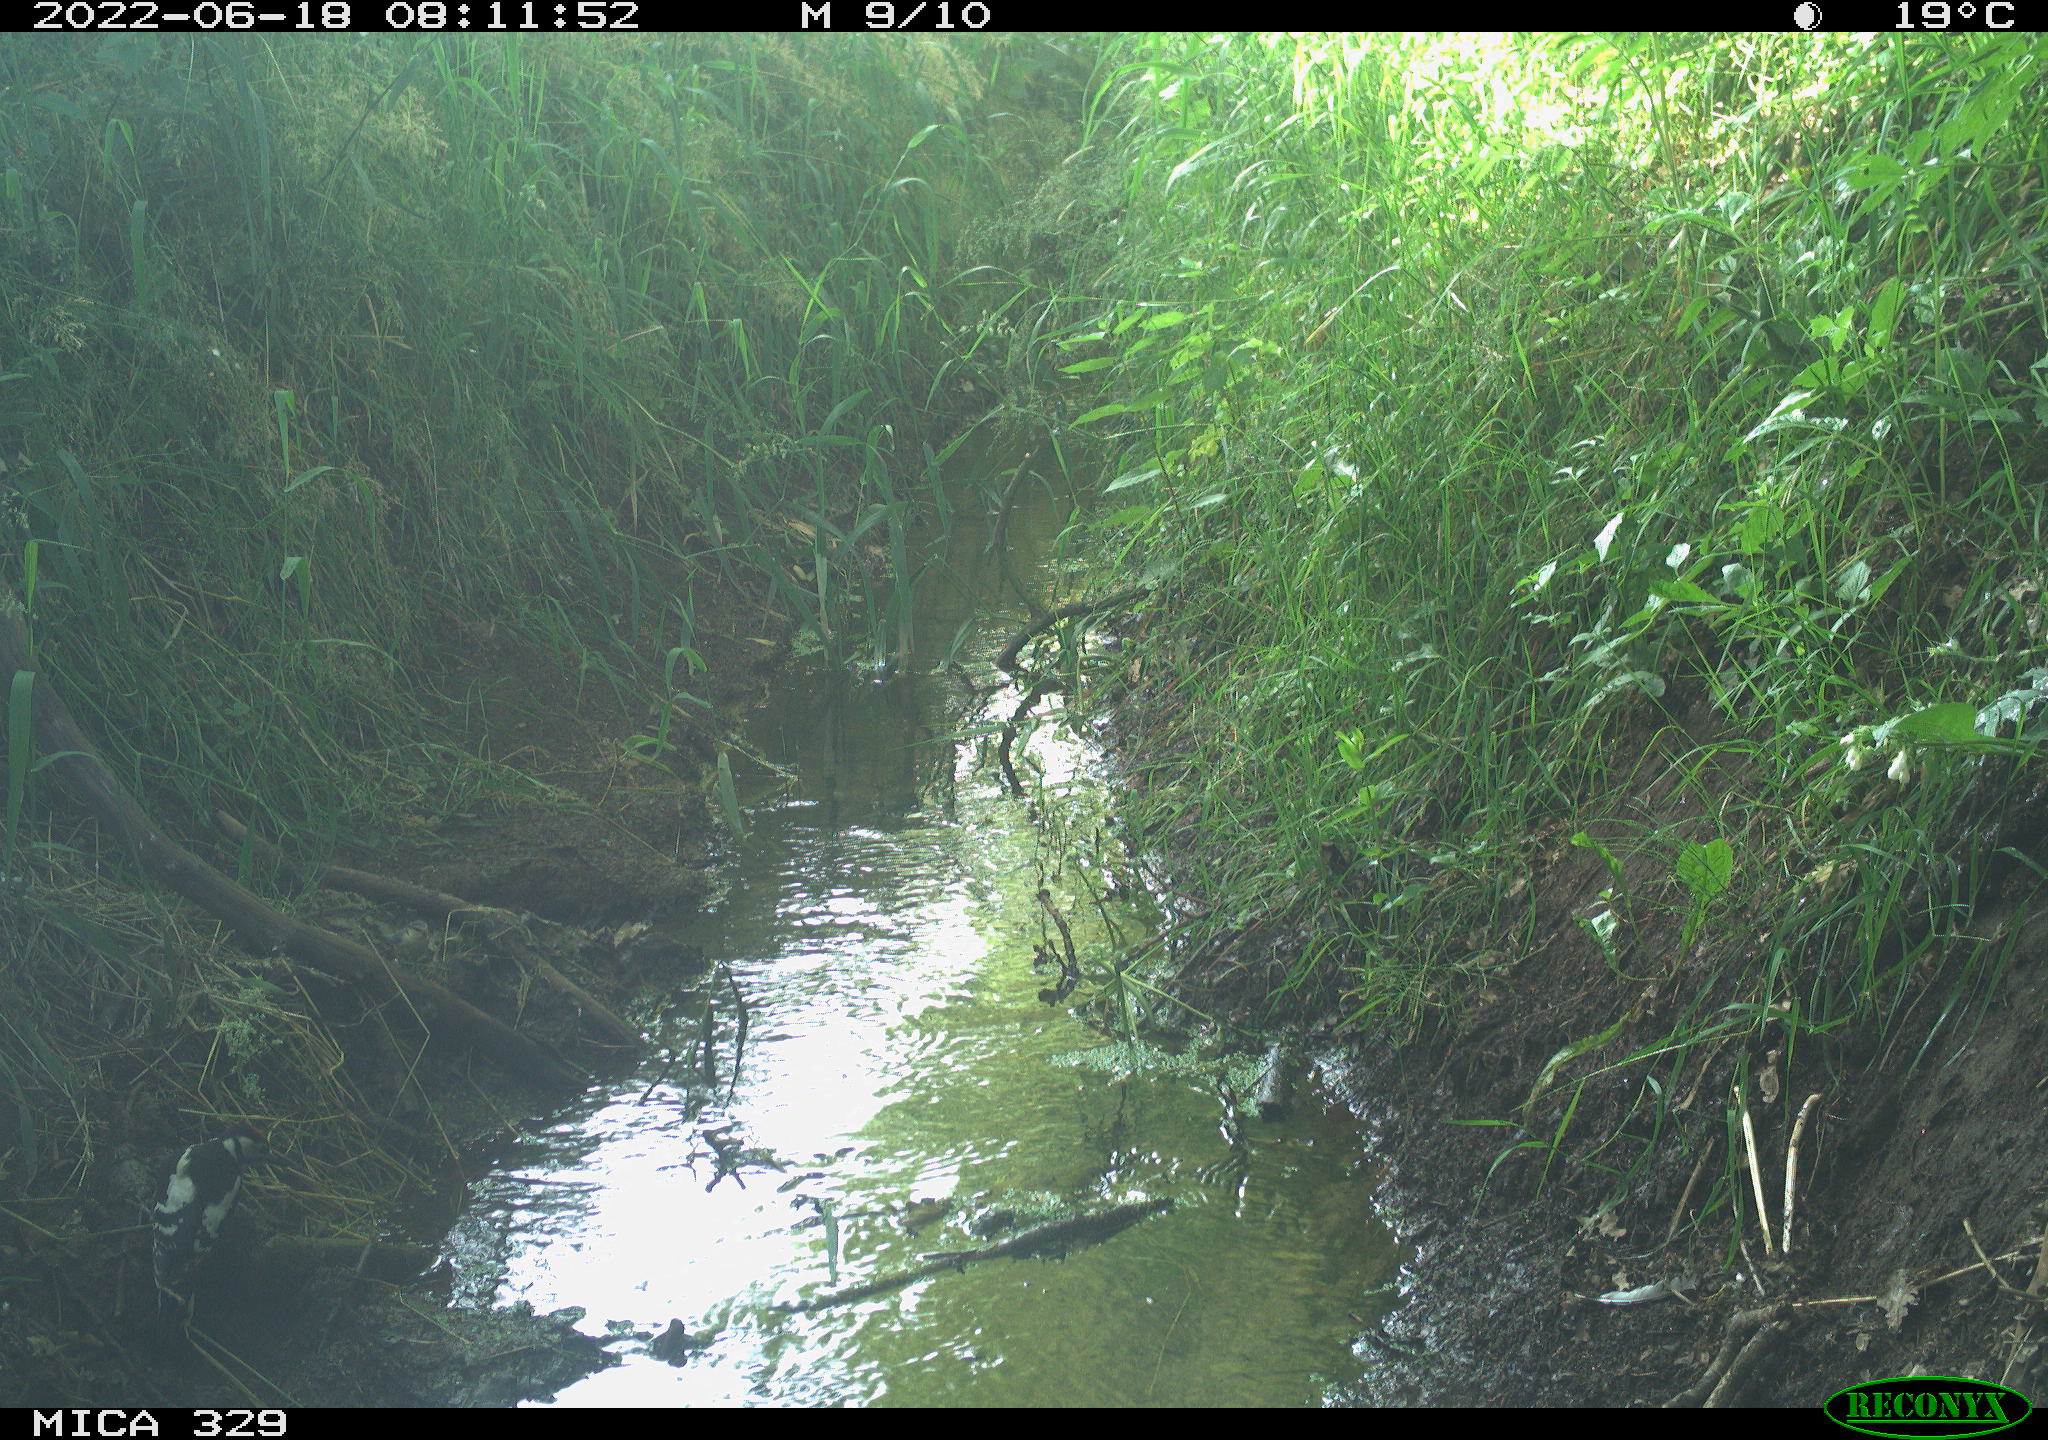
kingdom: Animalia
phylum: Chordata
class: Aves
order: Piciformes
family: Picidae
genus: Dendrocopos
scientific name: Dendrocopos major
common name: Great spotted woodpecker
